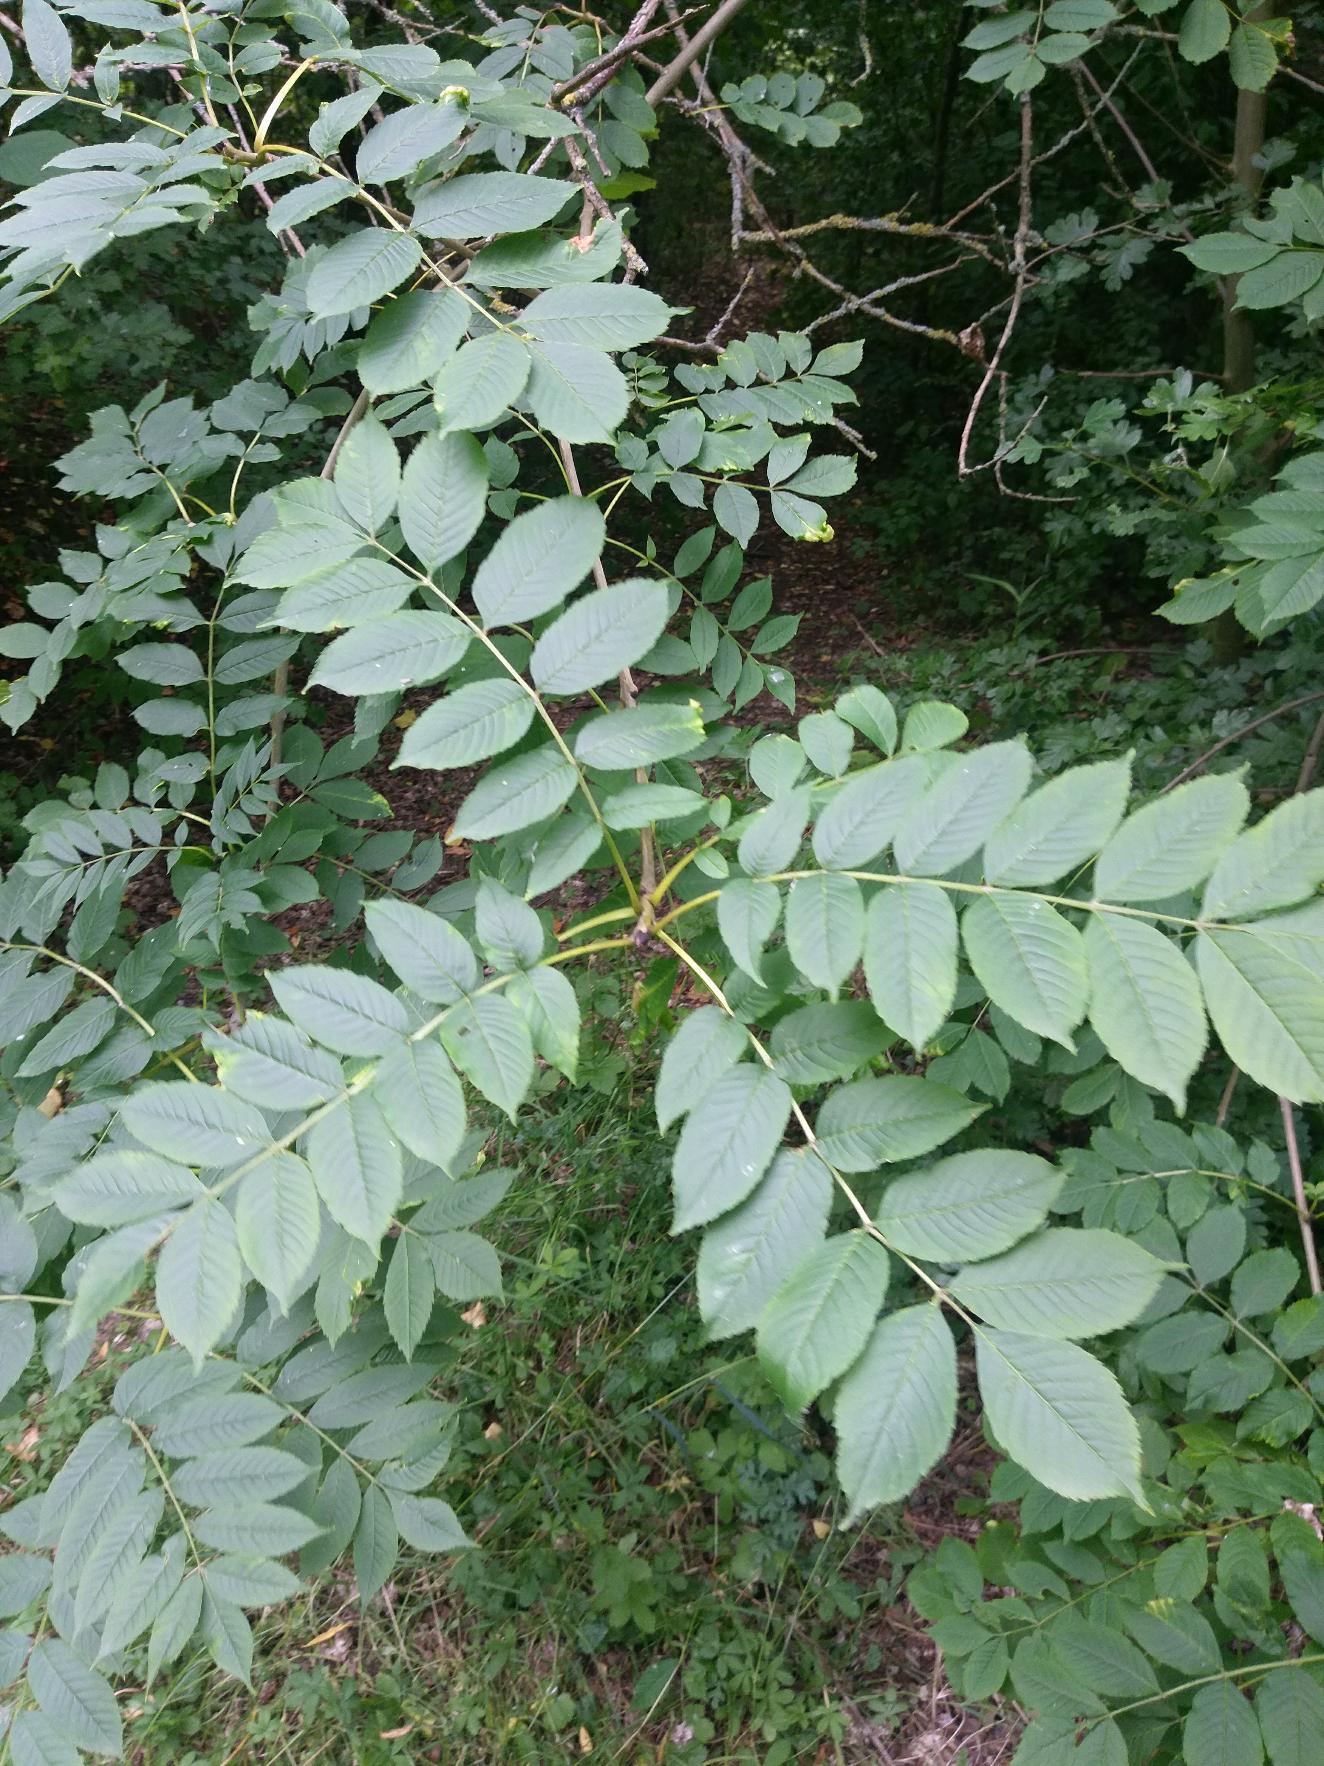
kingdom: Plantae
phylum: Tracheophyta
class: Magnoliopsida
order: Lamiales
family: Oleaceae
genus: Fraxinus
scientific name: Fraxinus excelsior
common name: Ask
